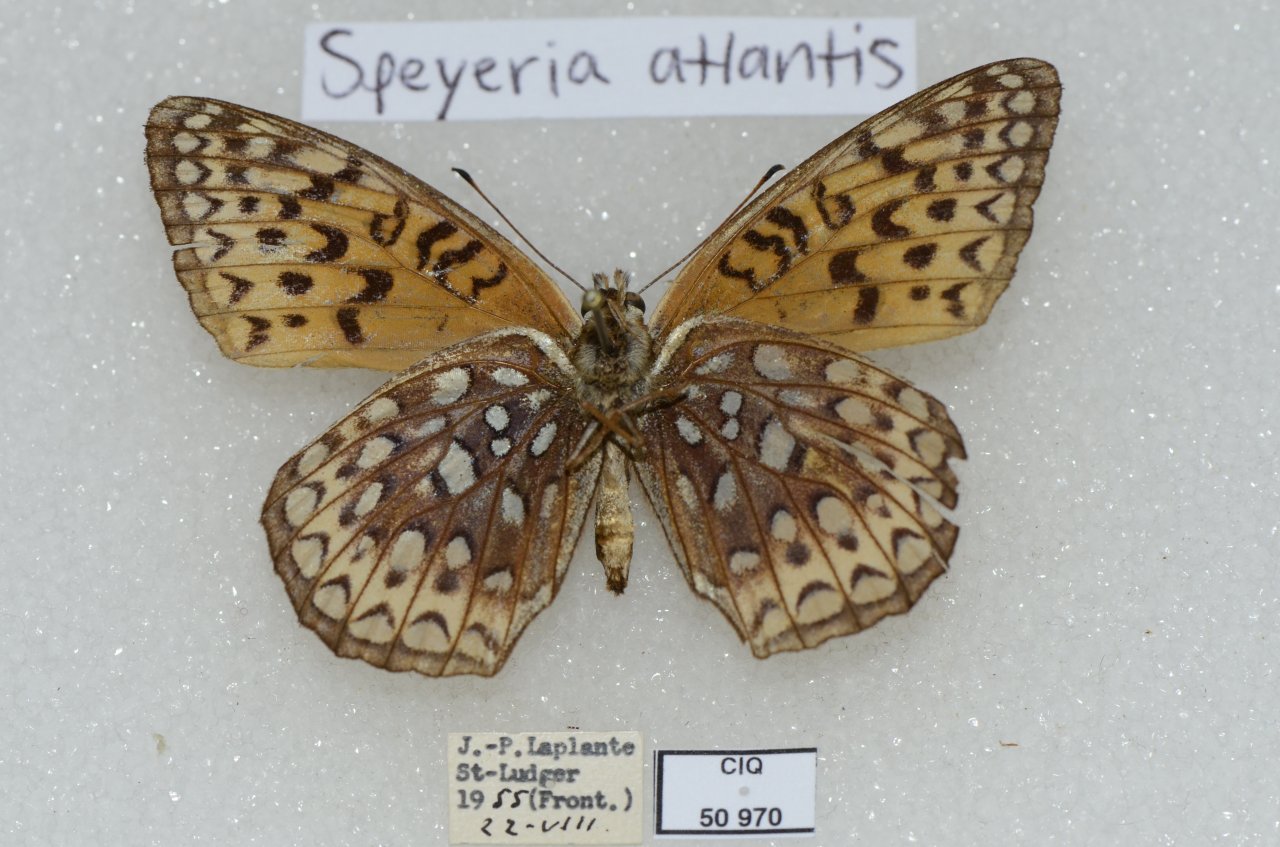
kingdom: Animalia
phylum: Arthropoda
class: Insecta
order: Lepidoptera
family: Nymphalidae
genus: Speyeria
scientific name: Speyeria atlantis
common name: Atlantis Fritillary
